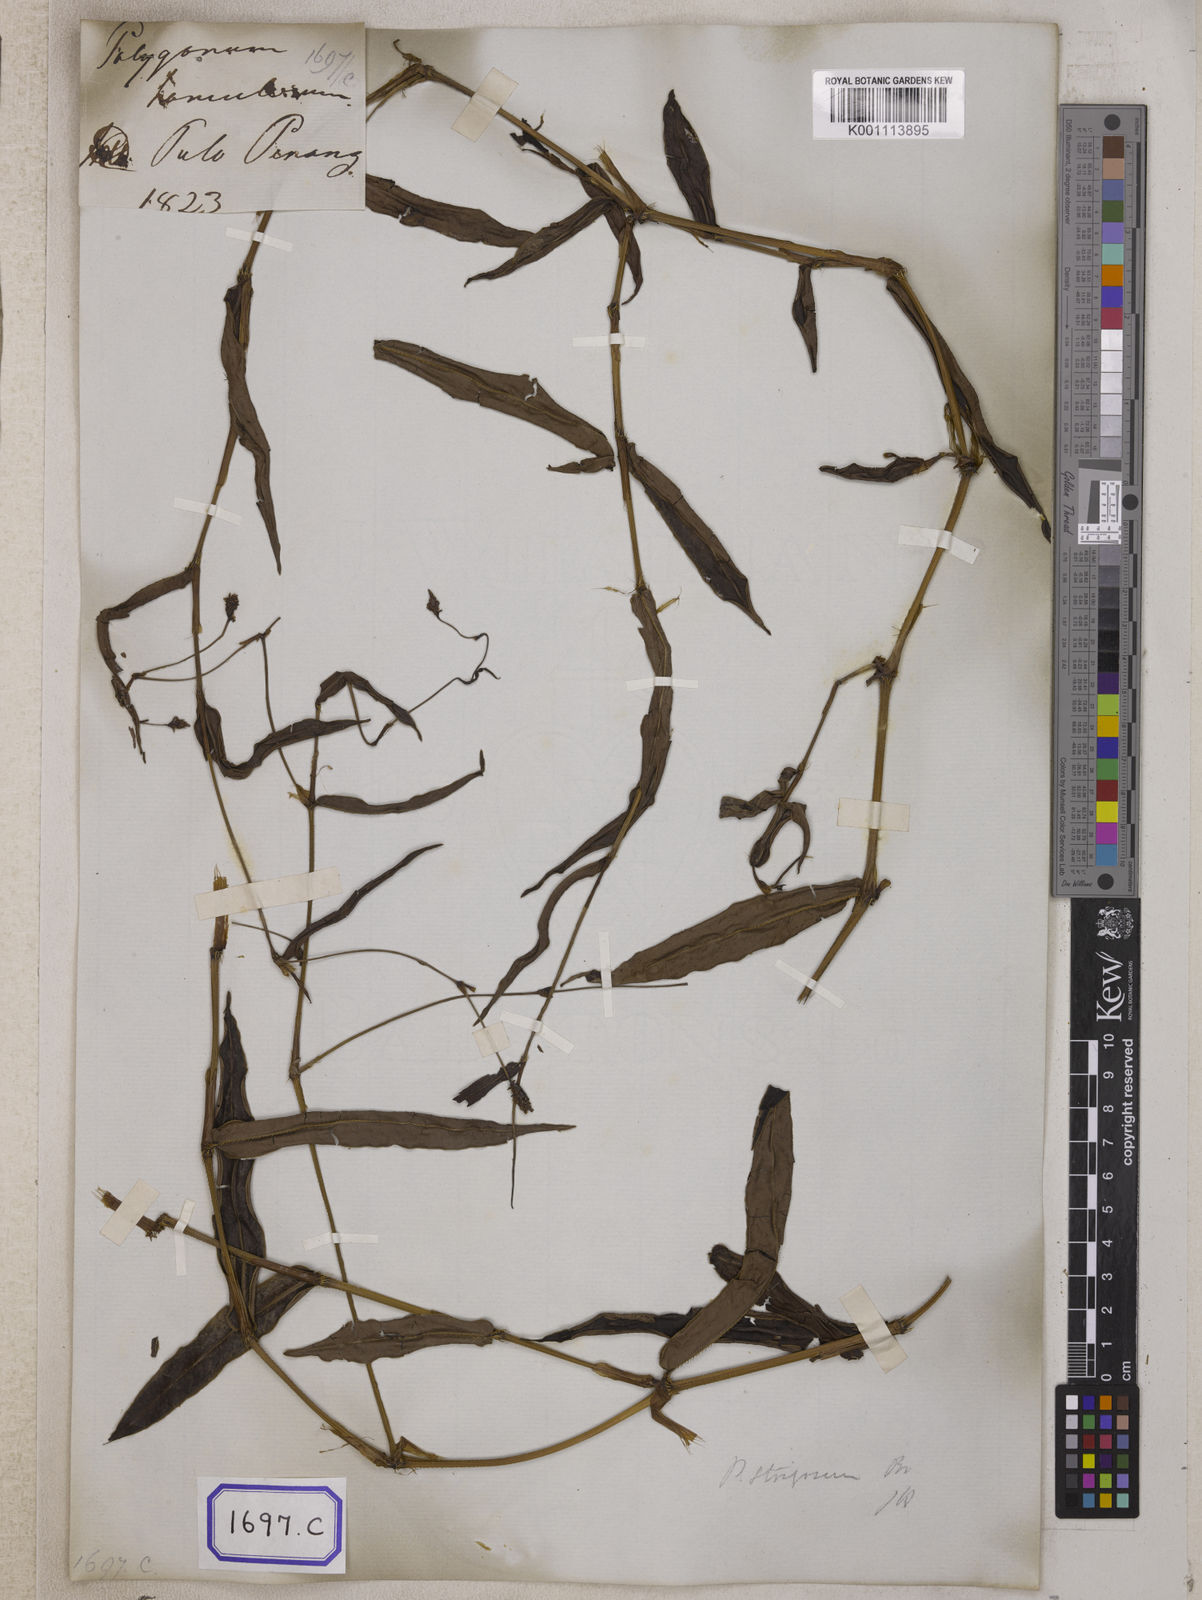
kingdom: Plantae
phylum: Tracheophyta
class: Magnoliopsida
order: Caryophyllales
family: Polygonaceae
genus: Persicaria
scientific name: Persicaria muricata
